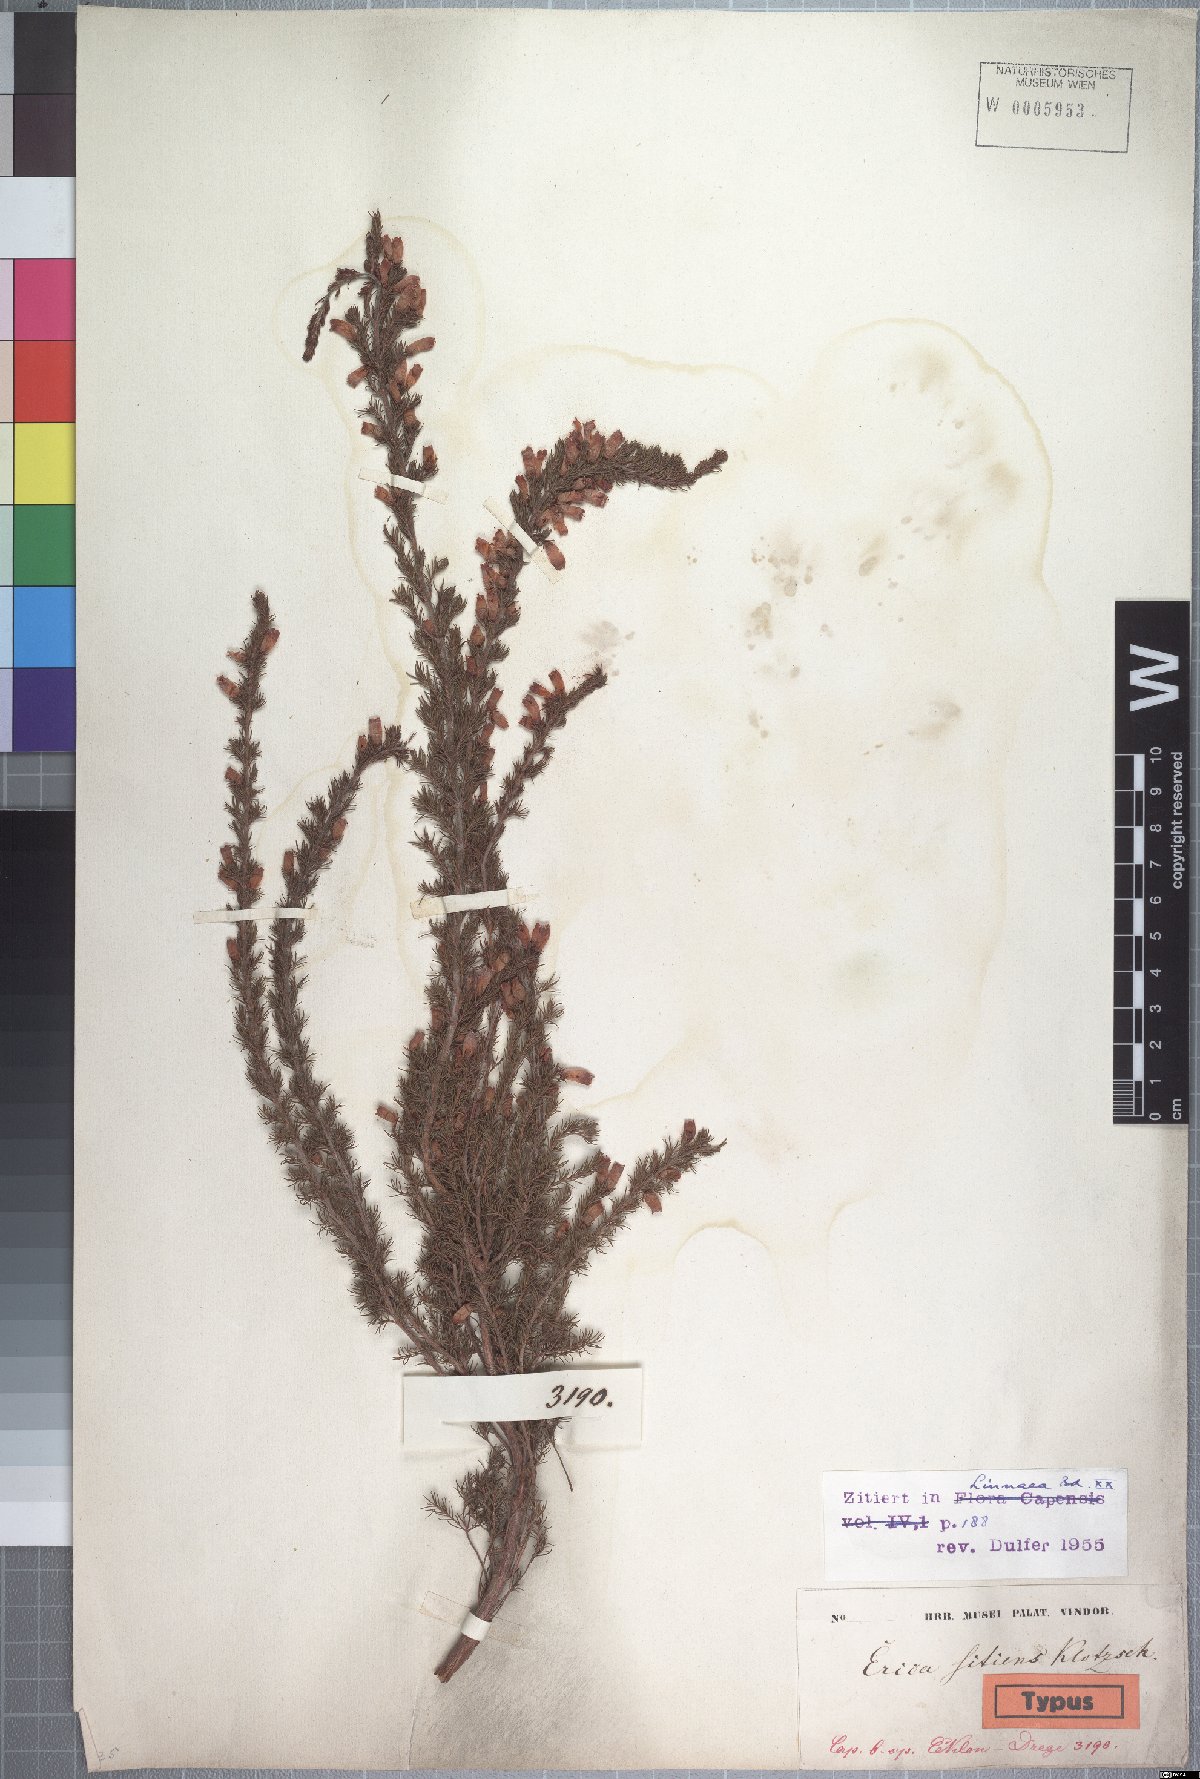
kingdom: Plantae
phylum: Tracheophyta
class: Magnoliopsida
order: Ericales
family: Ericaceae
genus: Erica
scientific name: Erica sitiens
